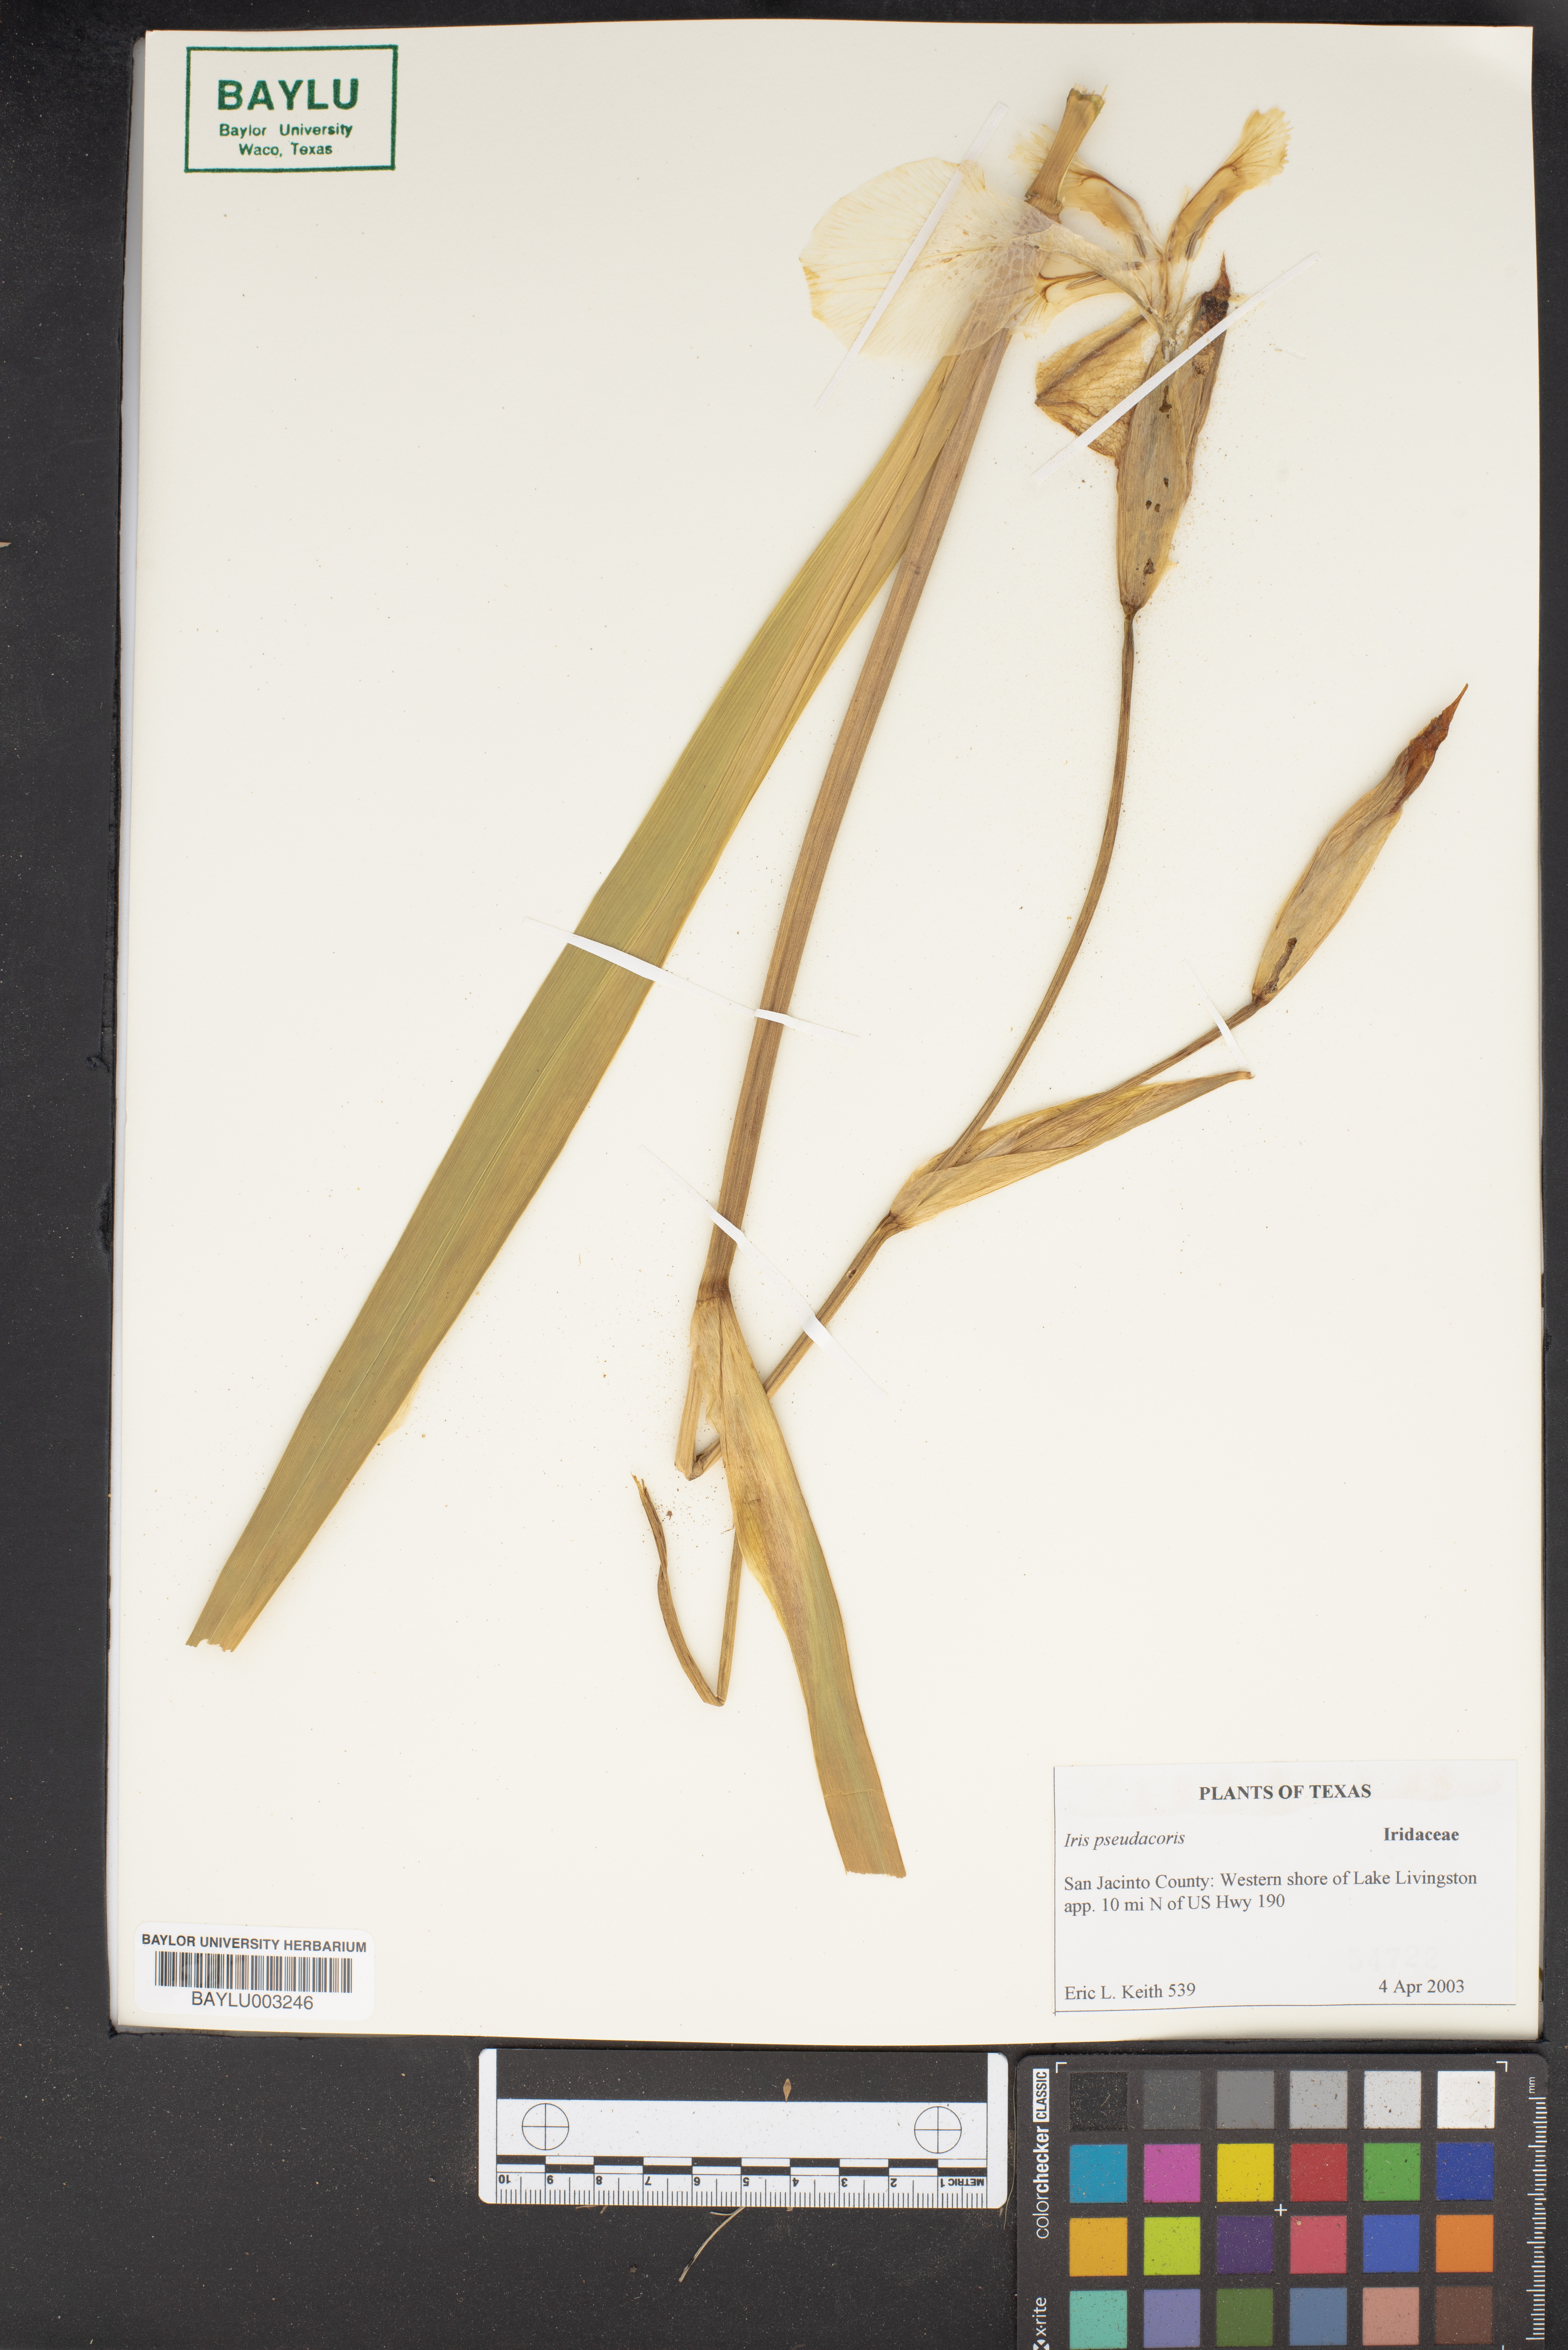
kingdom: Plantae
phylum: Tracheophyta
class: Liliopsida
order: Asparagales
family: Iridaceae
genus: Iris
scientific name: Iris pseudacorus
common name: Yellow flag
